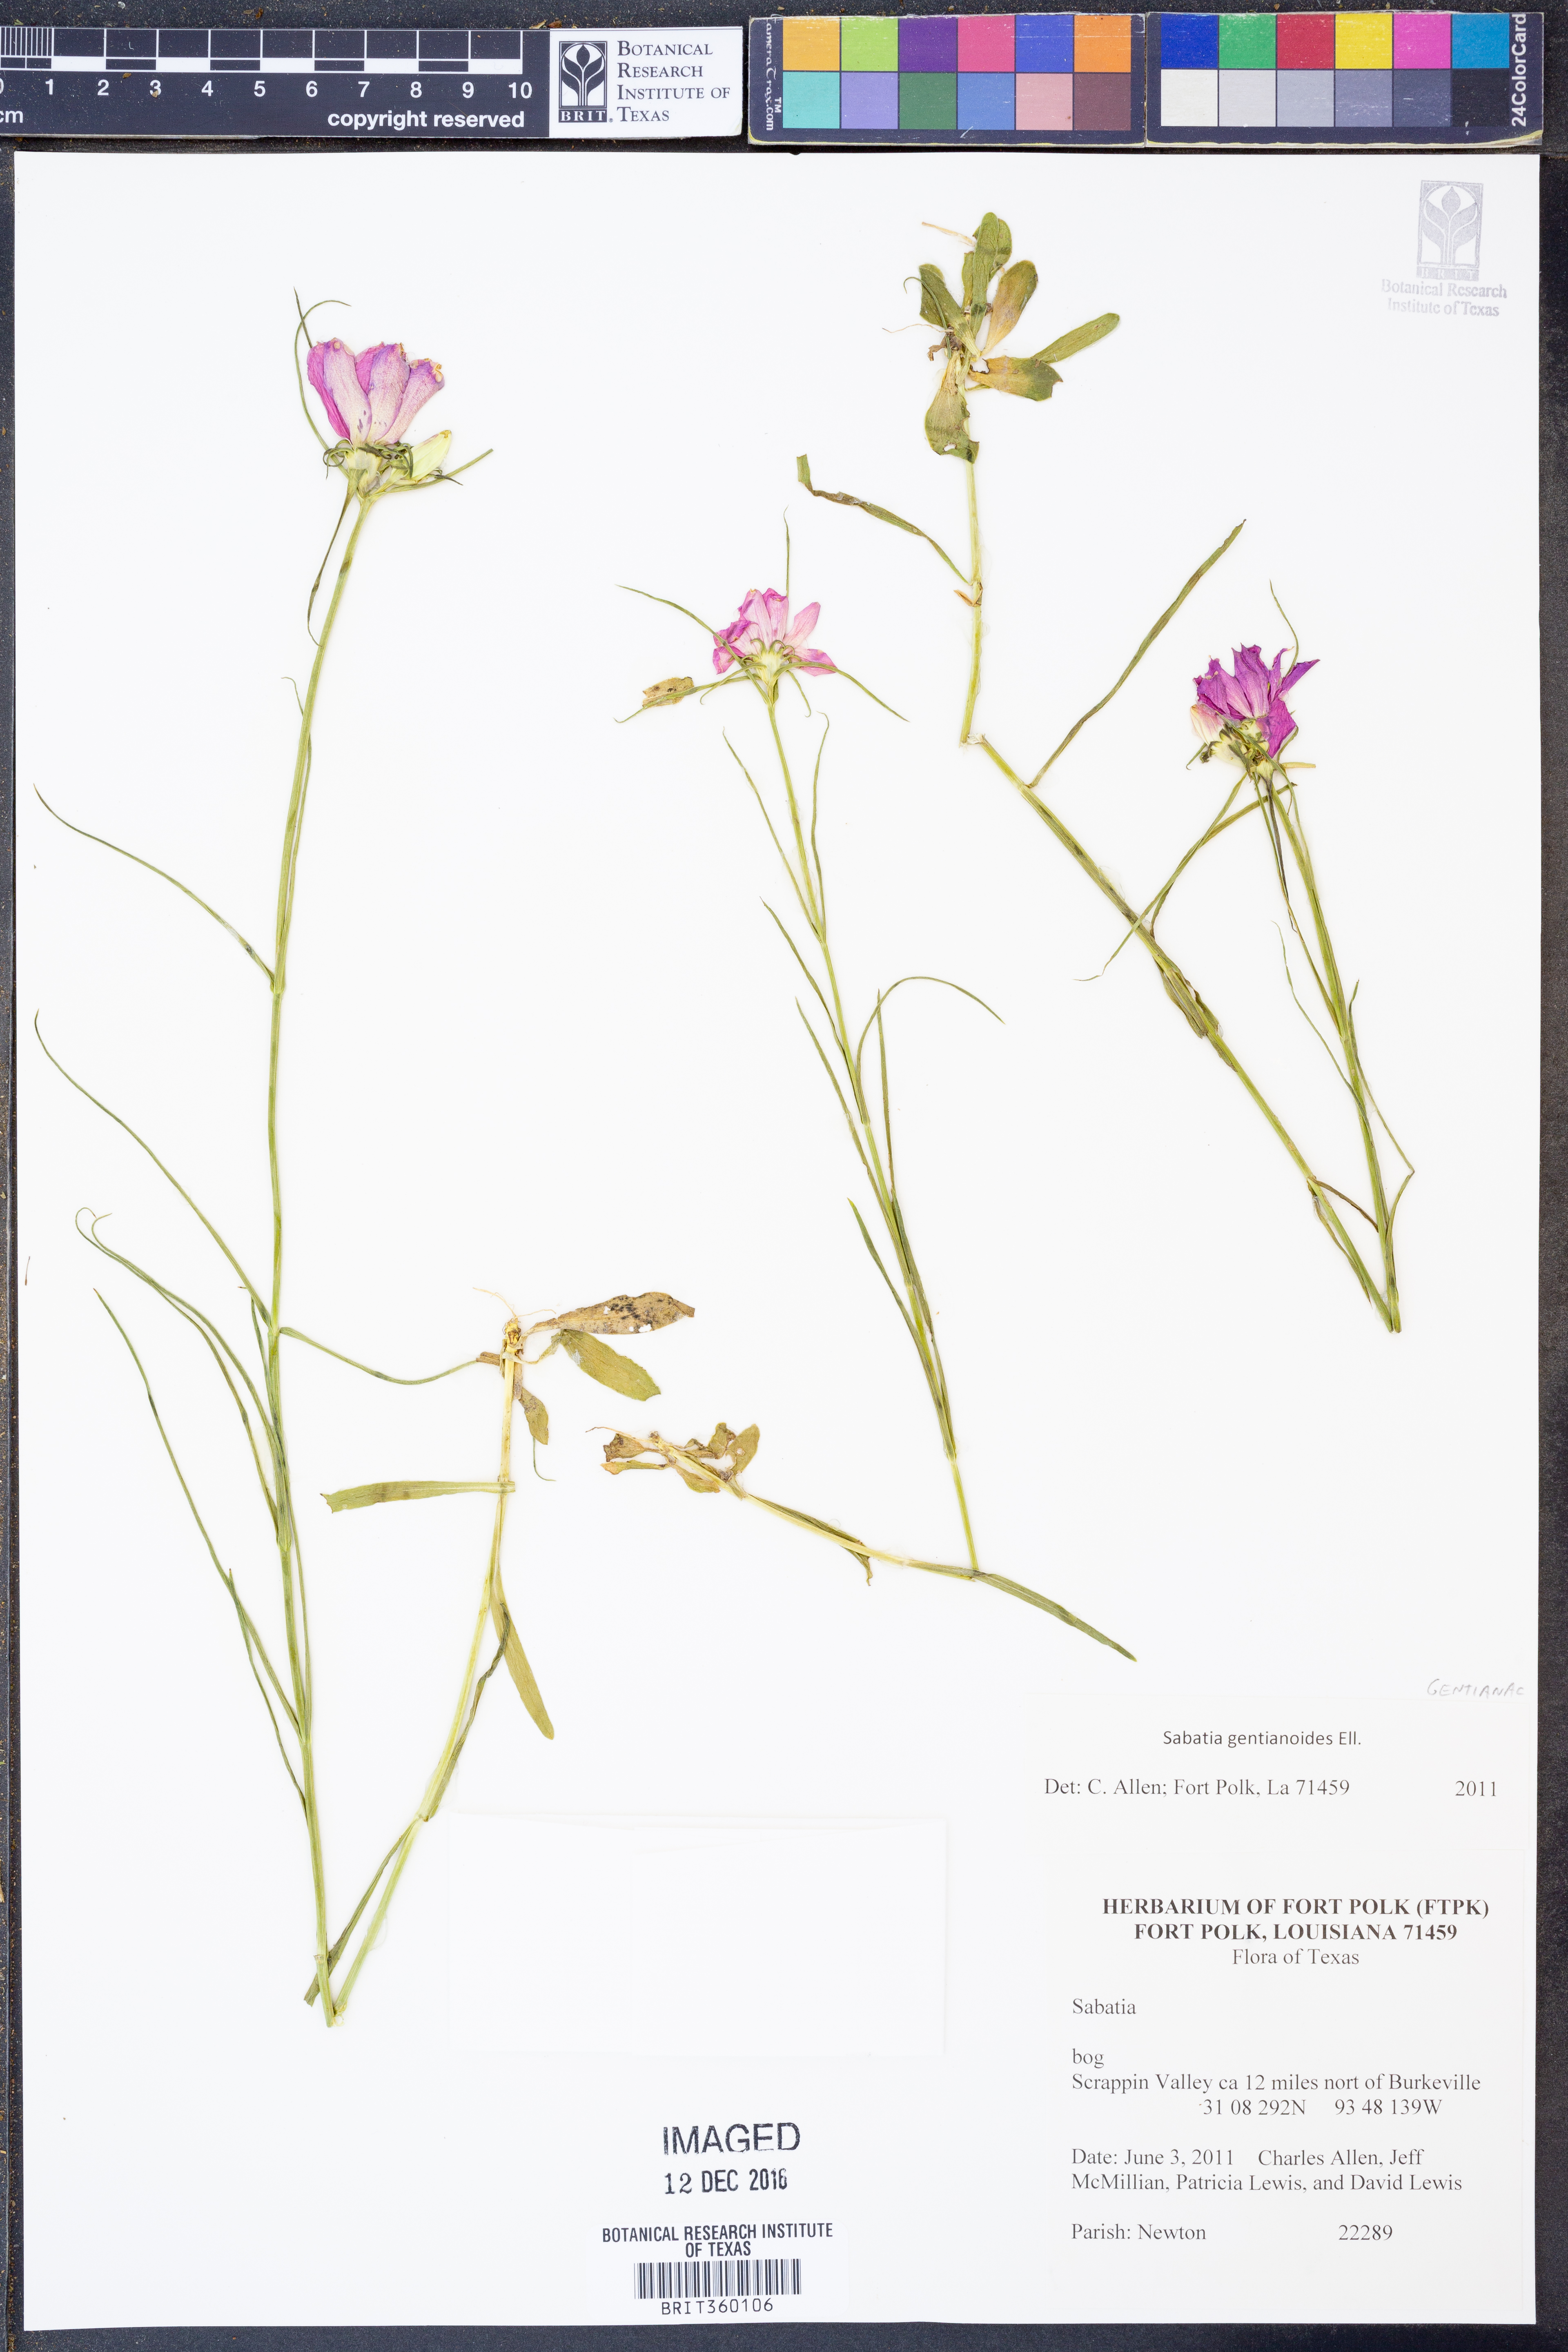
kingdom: Plantae
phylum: Tracheophyta
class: Magnoliopsida
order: Gentianales
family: Gentianaceae
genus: Sabatia
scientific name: Sabatia gentianoides
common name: Pinewoods rose-gentian
